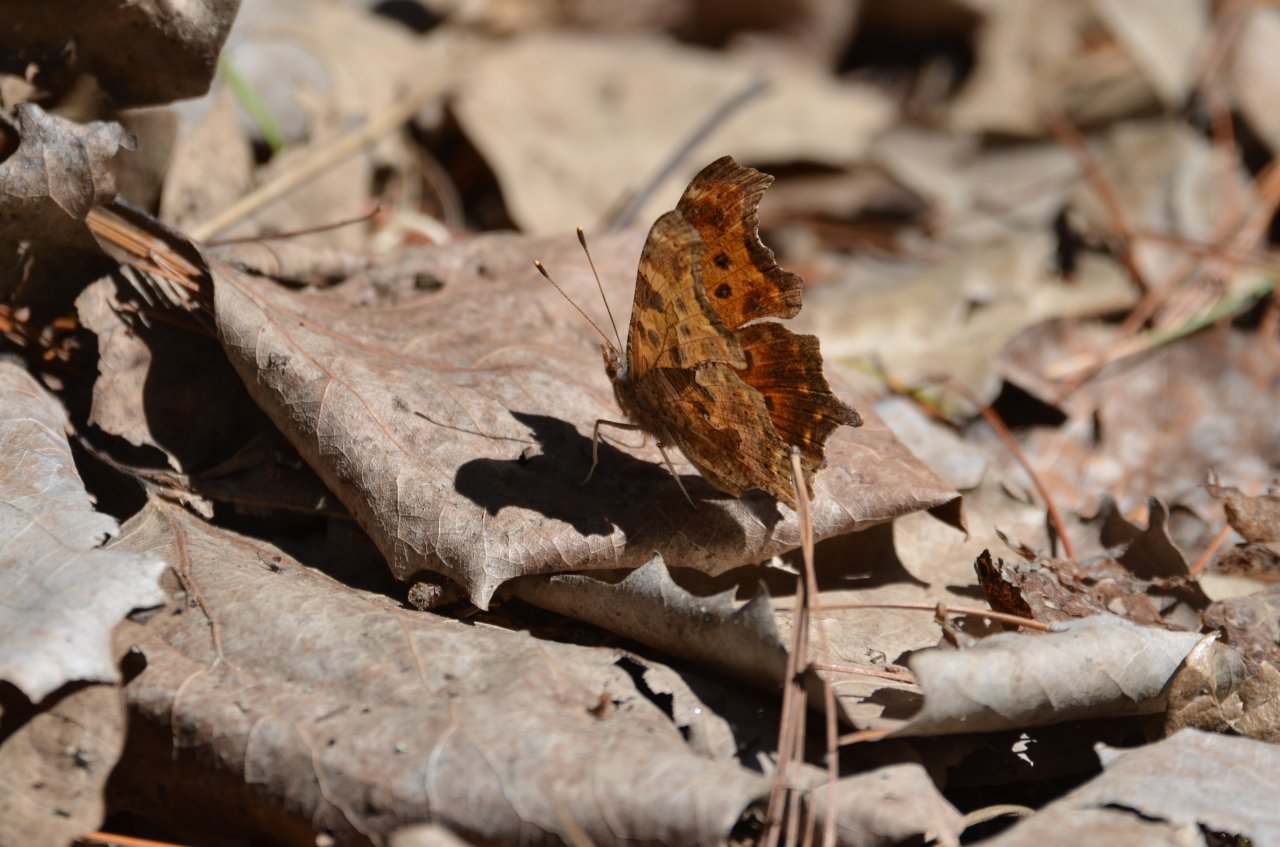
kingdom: Animalia
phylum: Arthropoda
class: Insecta
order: Lepidoptera
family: Nymphalidae
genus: Polygonia
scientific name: Polygonia comma
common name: Eastern Comma
